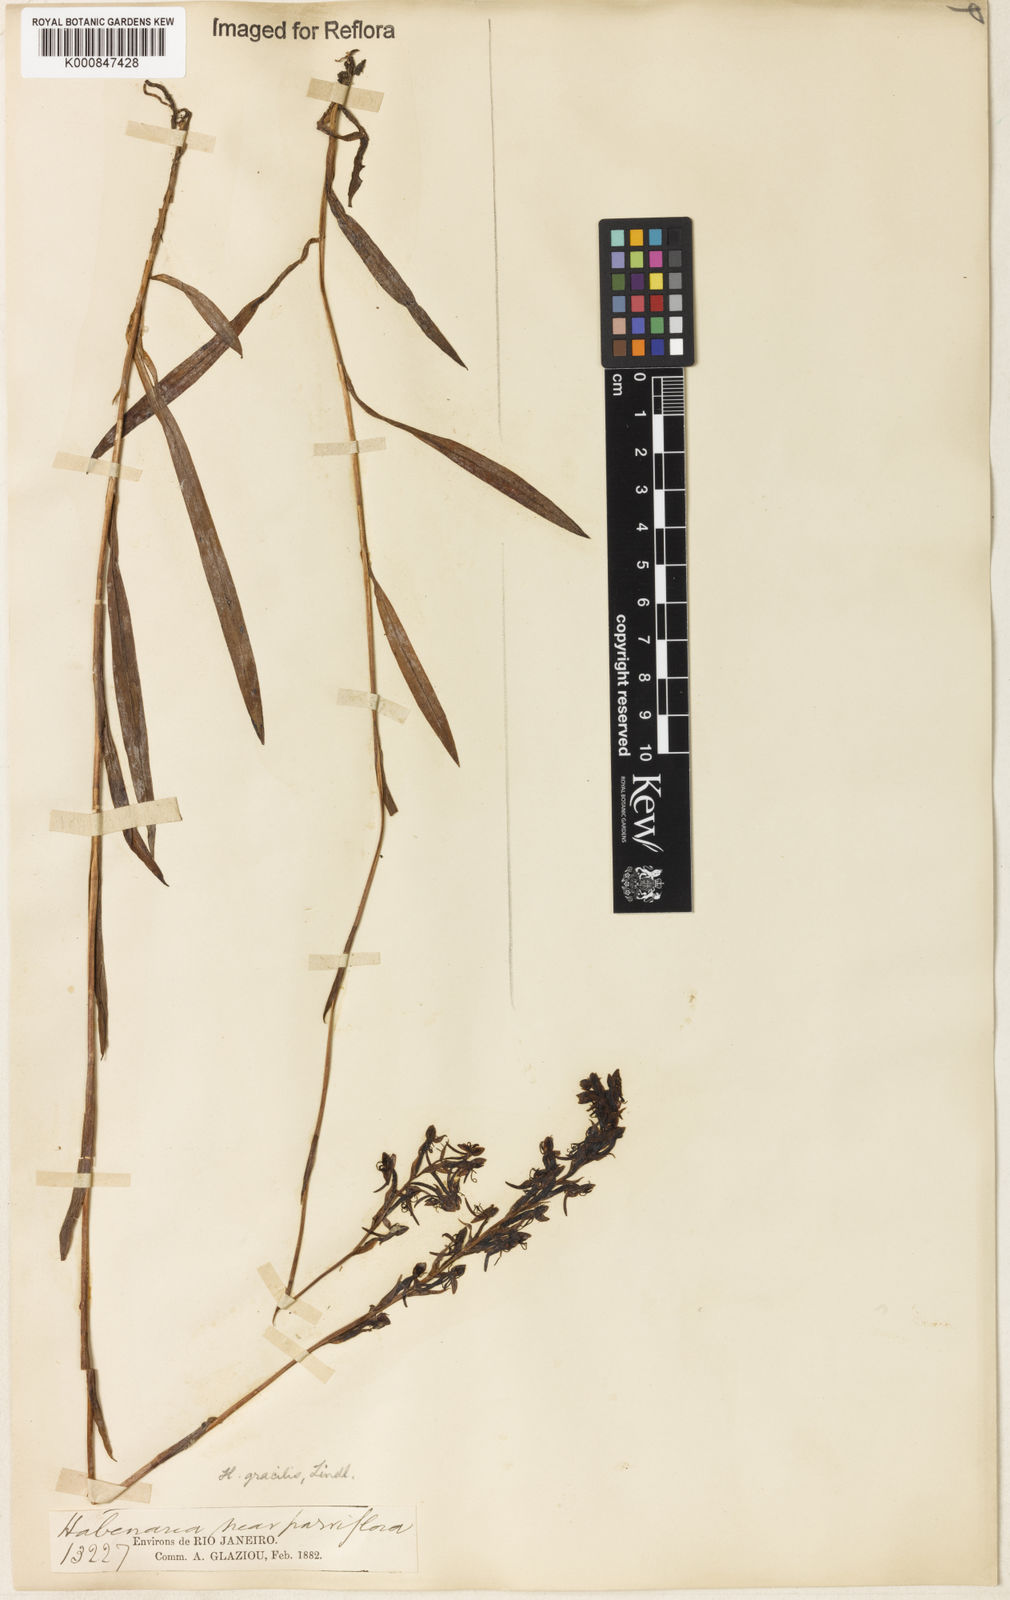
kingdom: Plantae
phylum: Tracheophyta
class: Liliopsida
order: Asparagales
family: Orchidaceae
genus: Habenaria
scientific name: Habenaria gracilis
